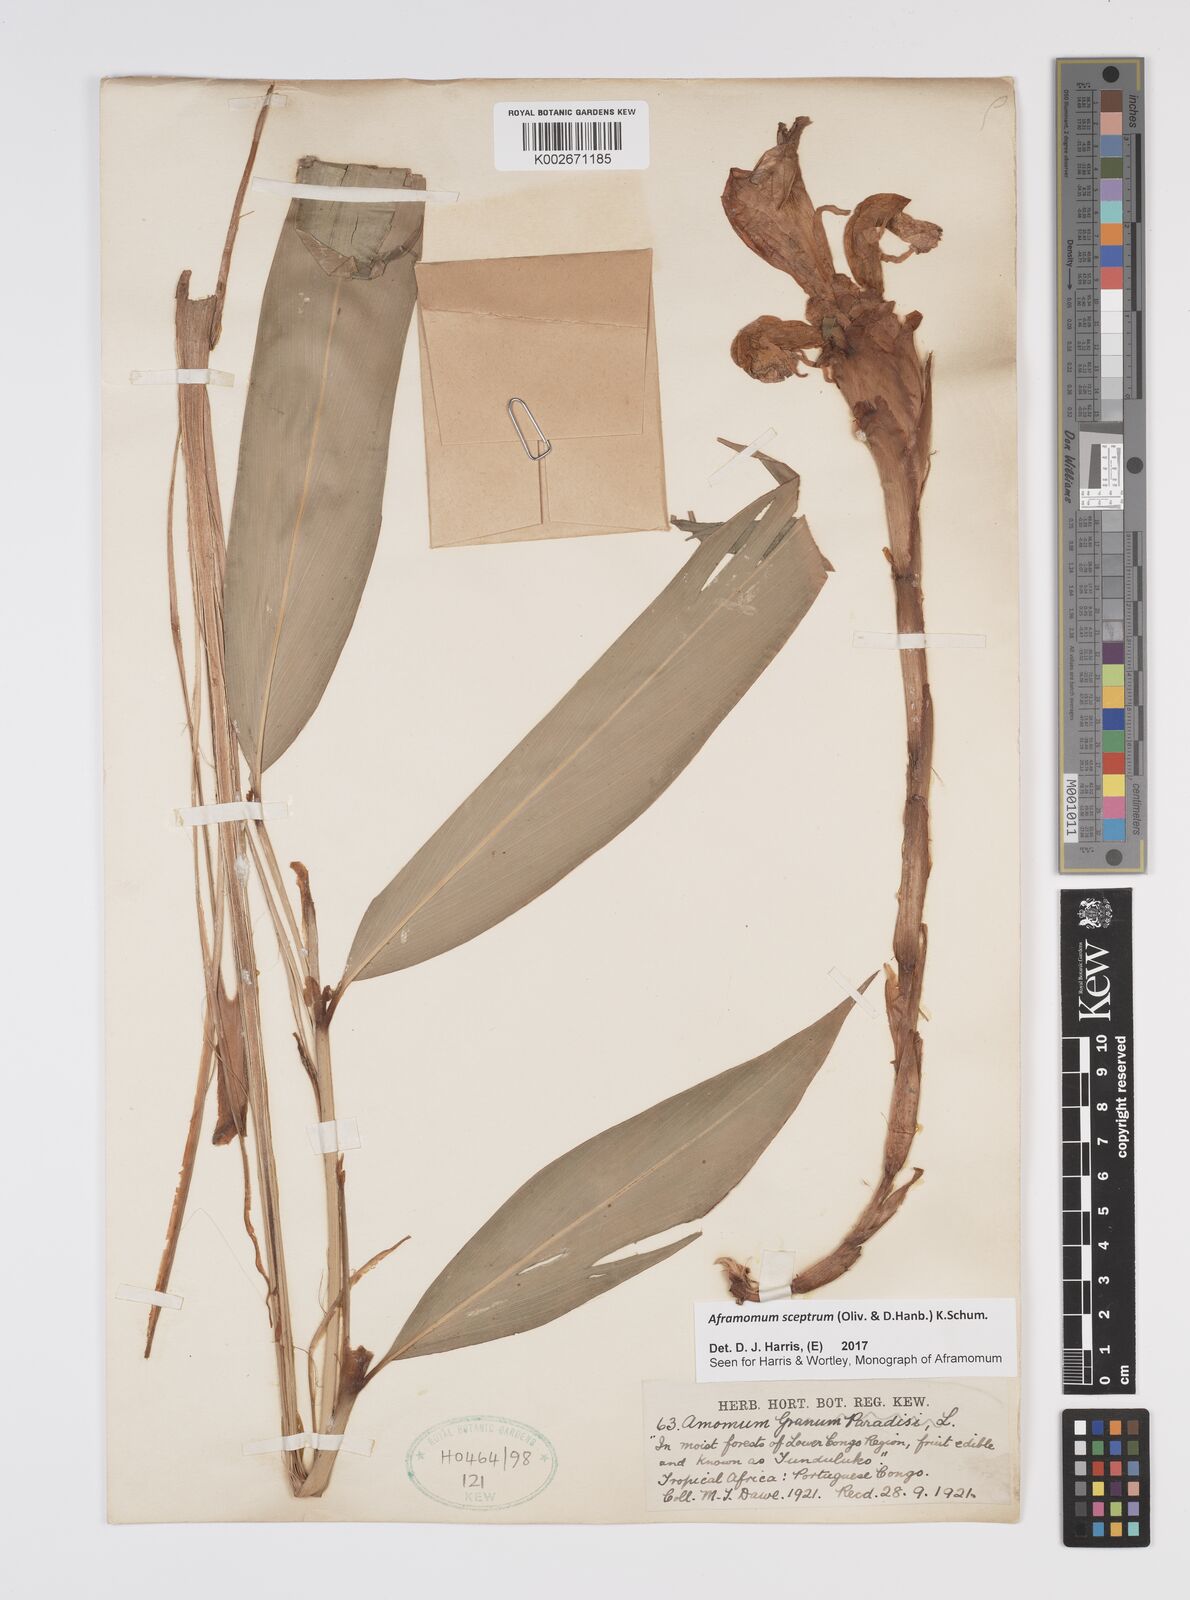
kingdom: Plantae
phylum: Tracheophyta
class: Liliopsida
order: Zingiberales
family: Zingiberaceae
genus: Aframomum
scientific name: Aframomum cereum
